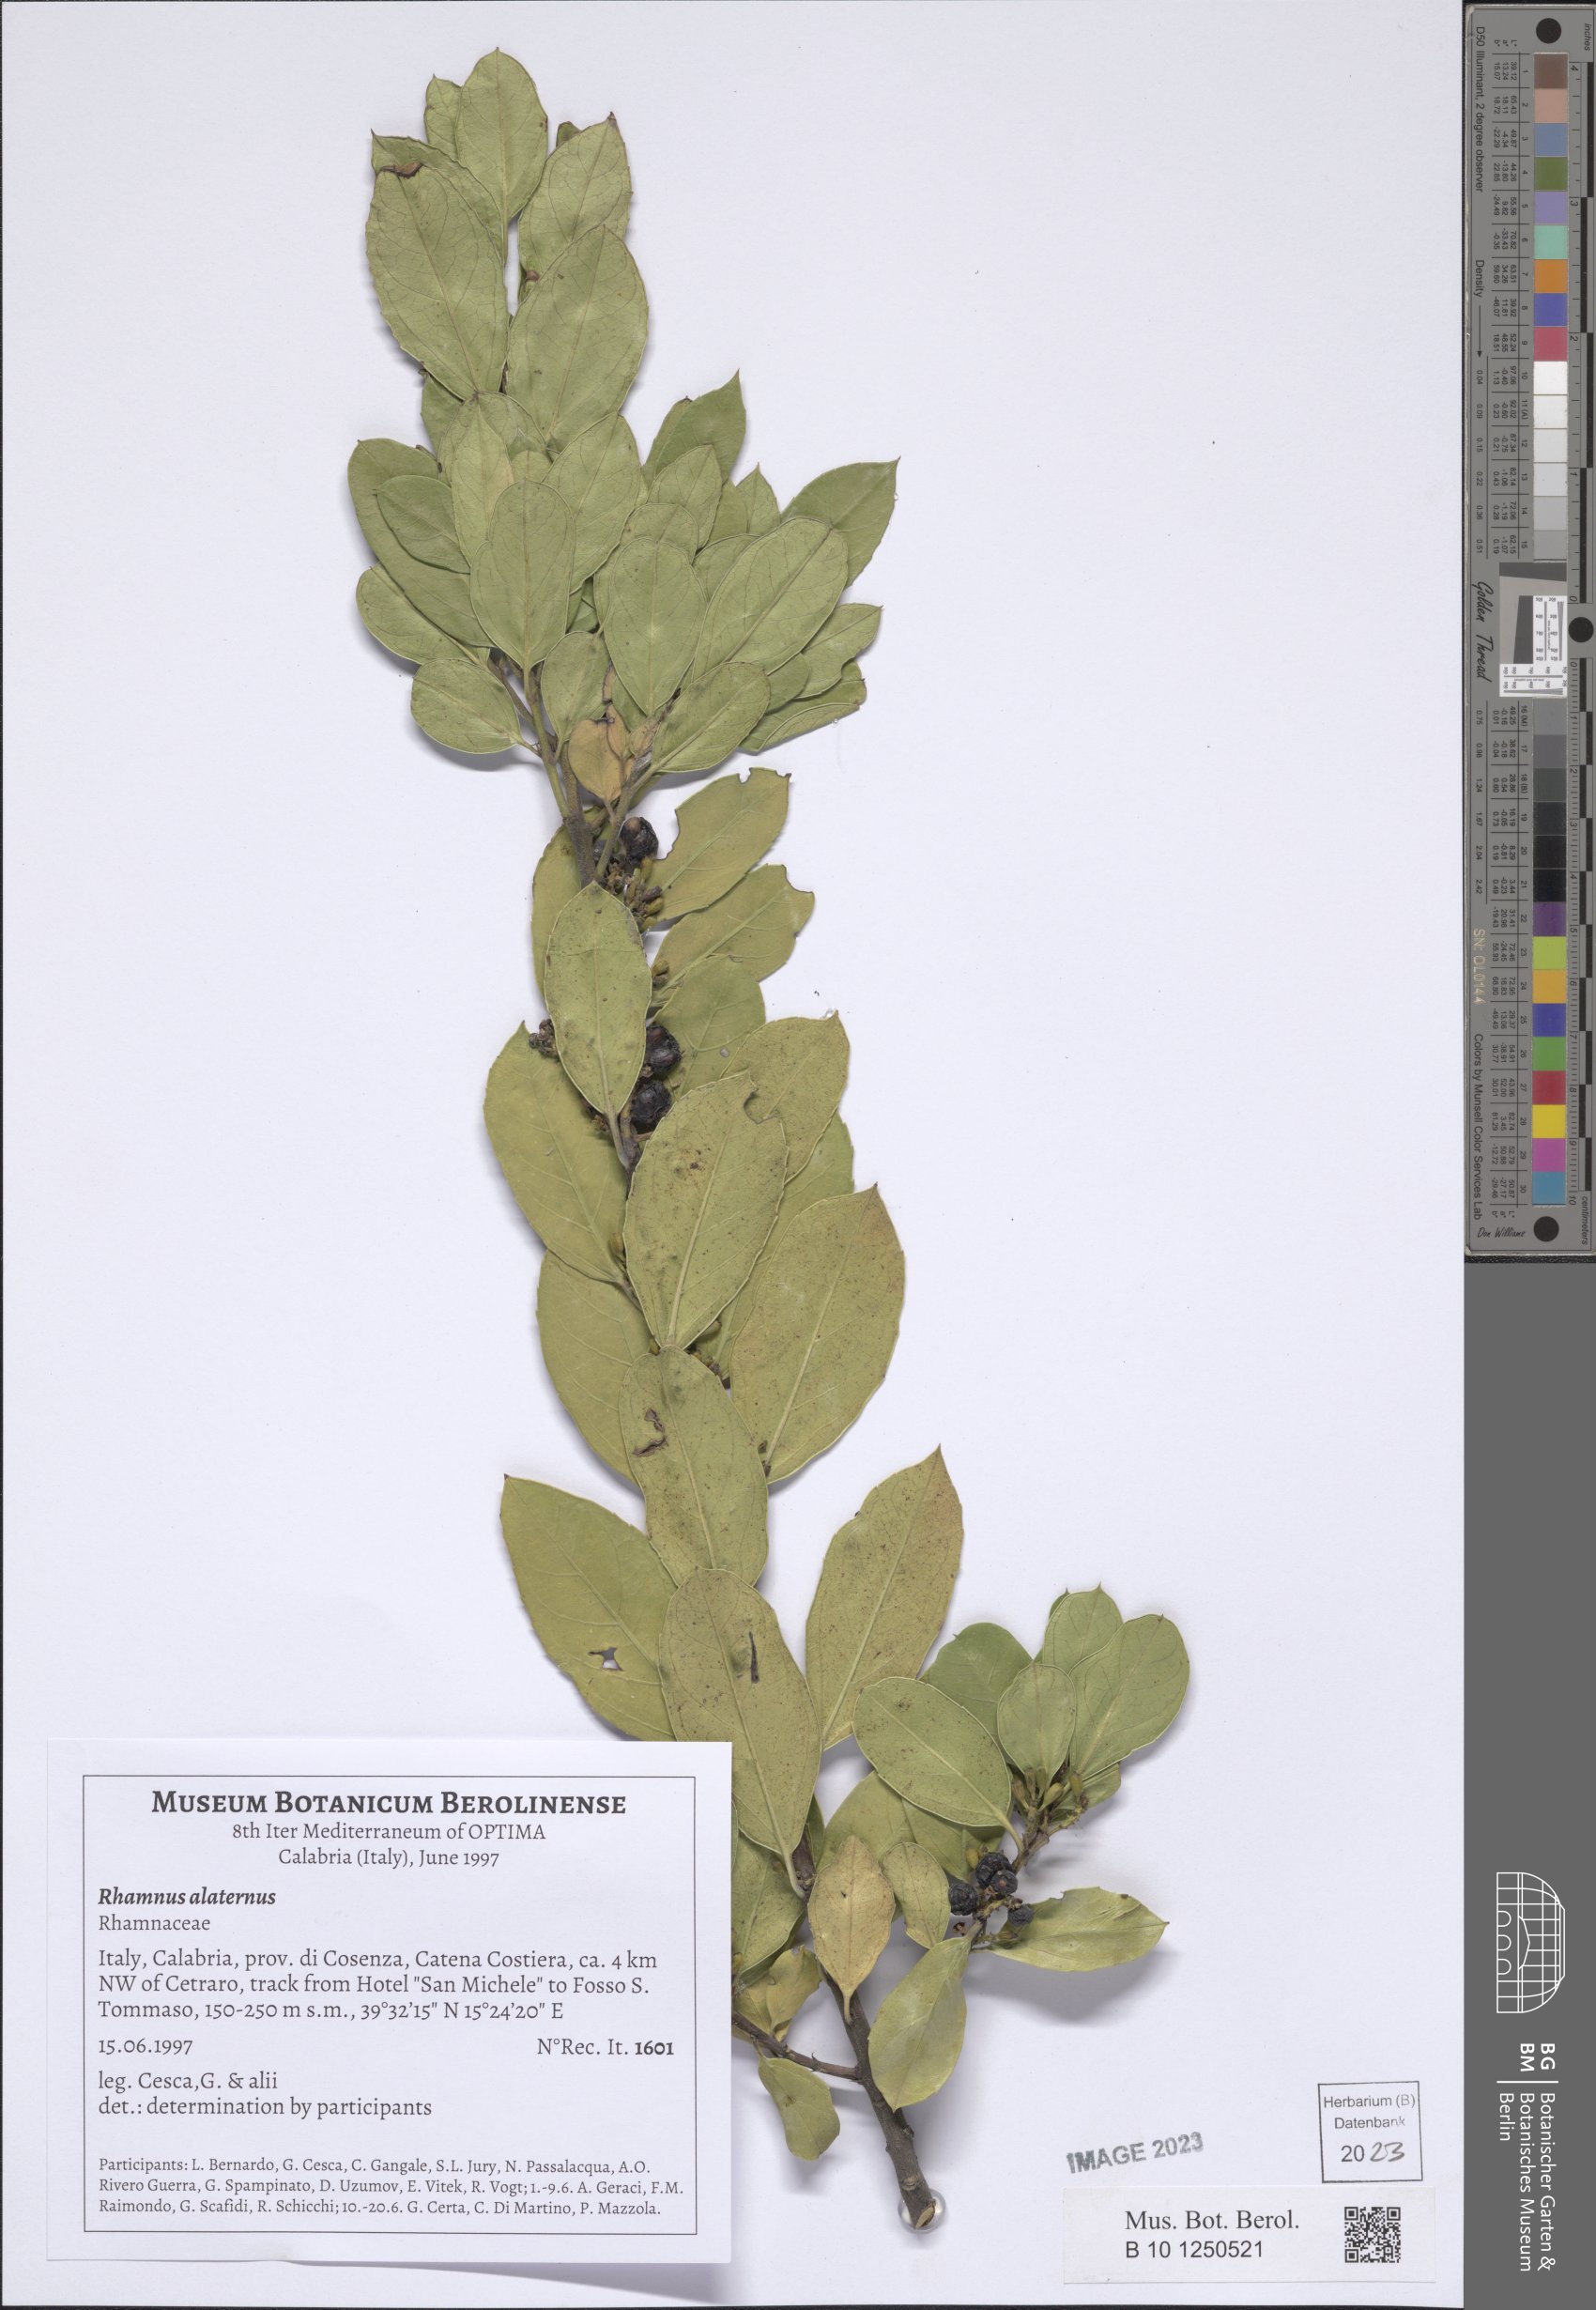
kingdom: Plantae
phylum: Tracheophyta
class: Magnoliopsida
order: Rosales
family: Rhamnaceae
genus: Rhamnus
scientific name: Rhamnus alaternus
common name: Mediterranean buckthorn
